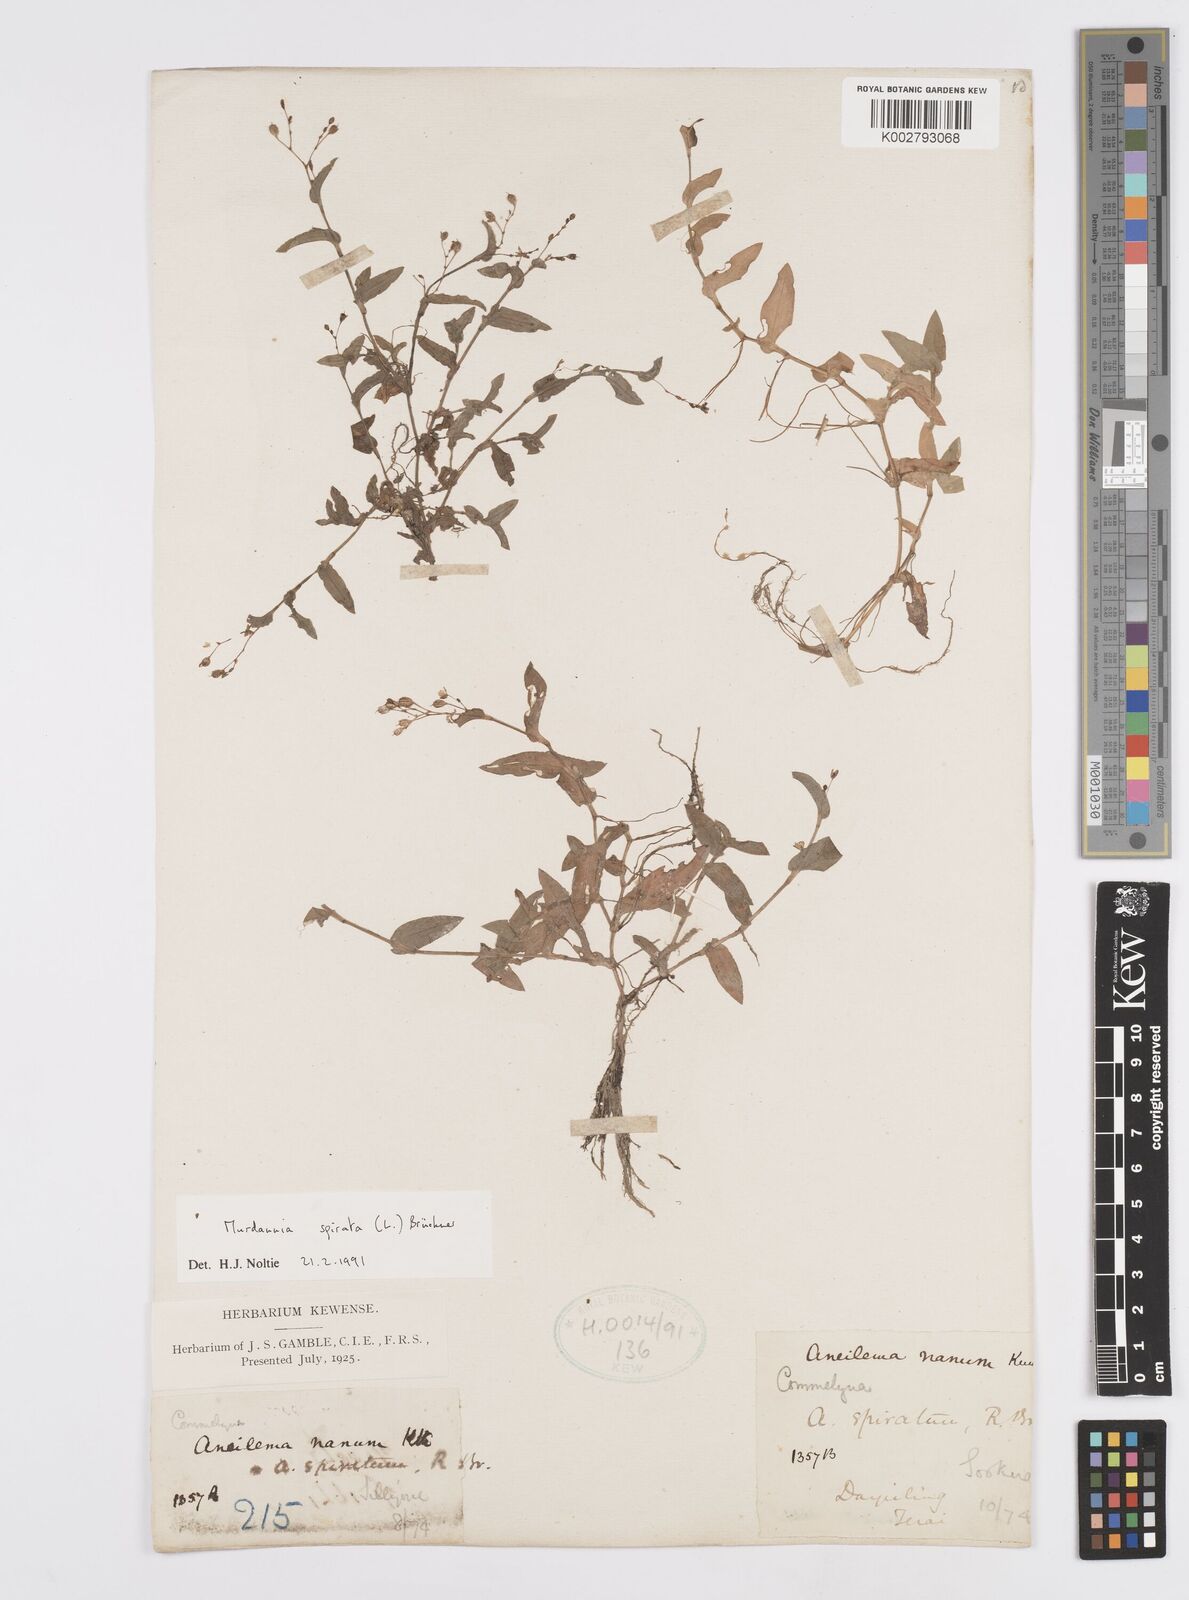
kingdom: Plantae
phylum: Tracheophyta
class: Liliopsida
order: Commelinales
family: Commelinaceae
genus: Murdannia
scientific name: Murdannia spirata
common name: Asiatic dewflower
